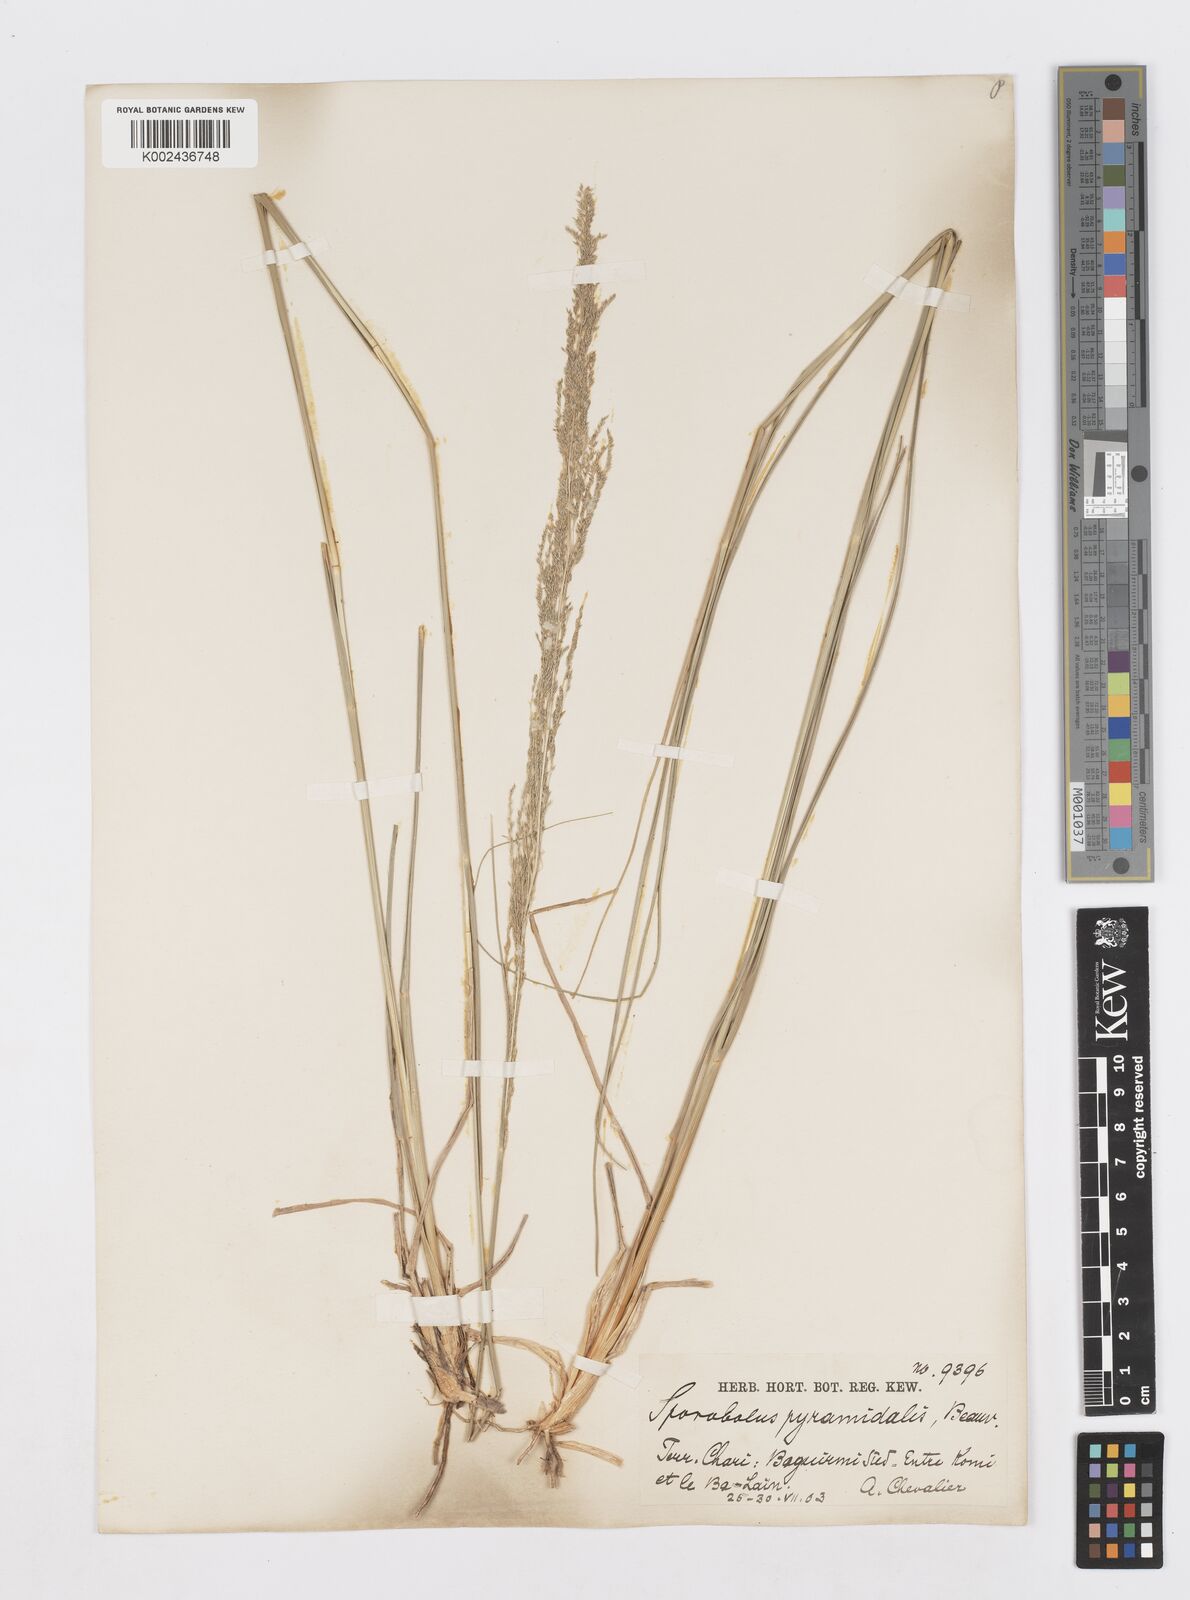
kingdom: Plantae
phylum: Tracheophyta
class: Liliopsida
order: Poales
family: Poaceae
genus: Sporobolus
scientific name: Sporobolus pyramidalis
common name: West indian dropseed
